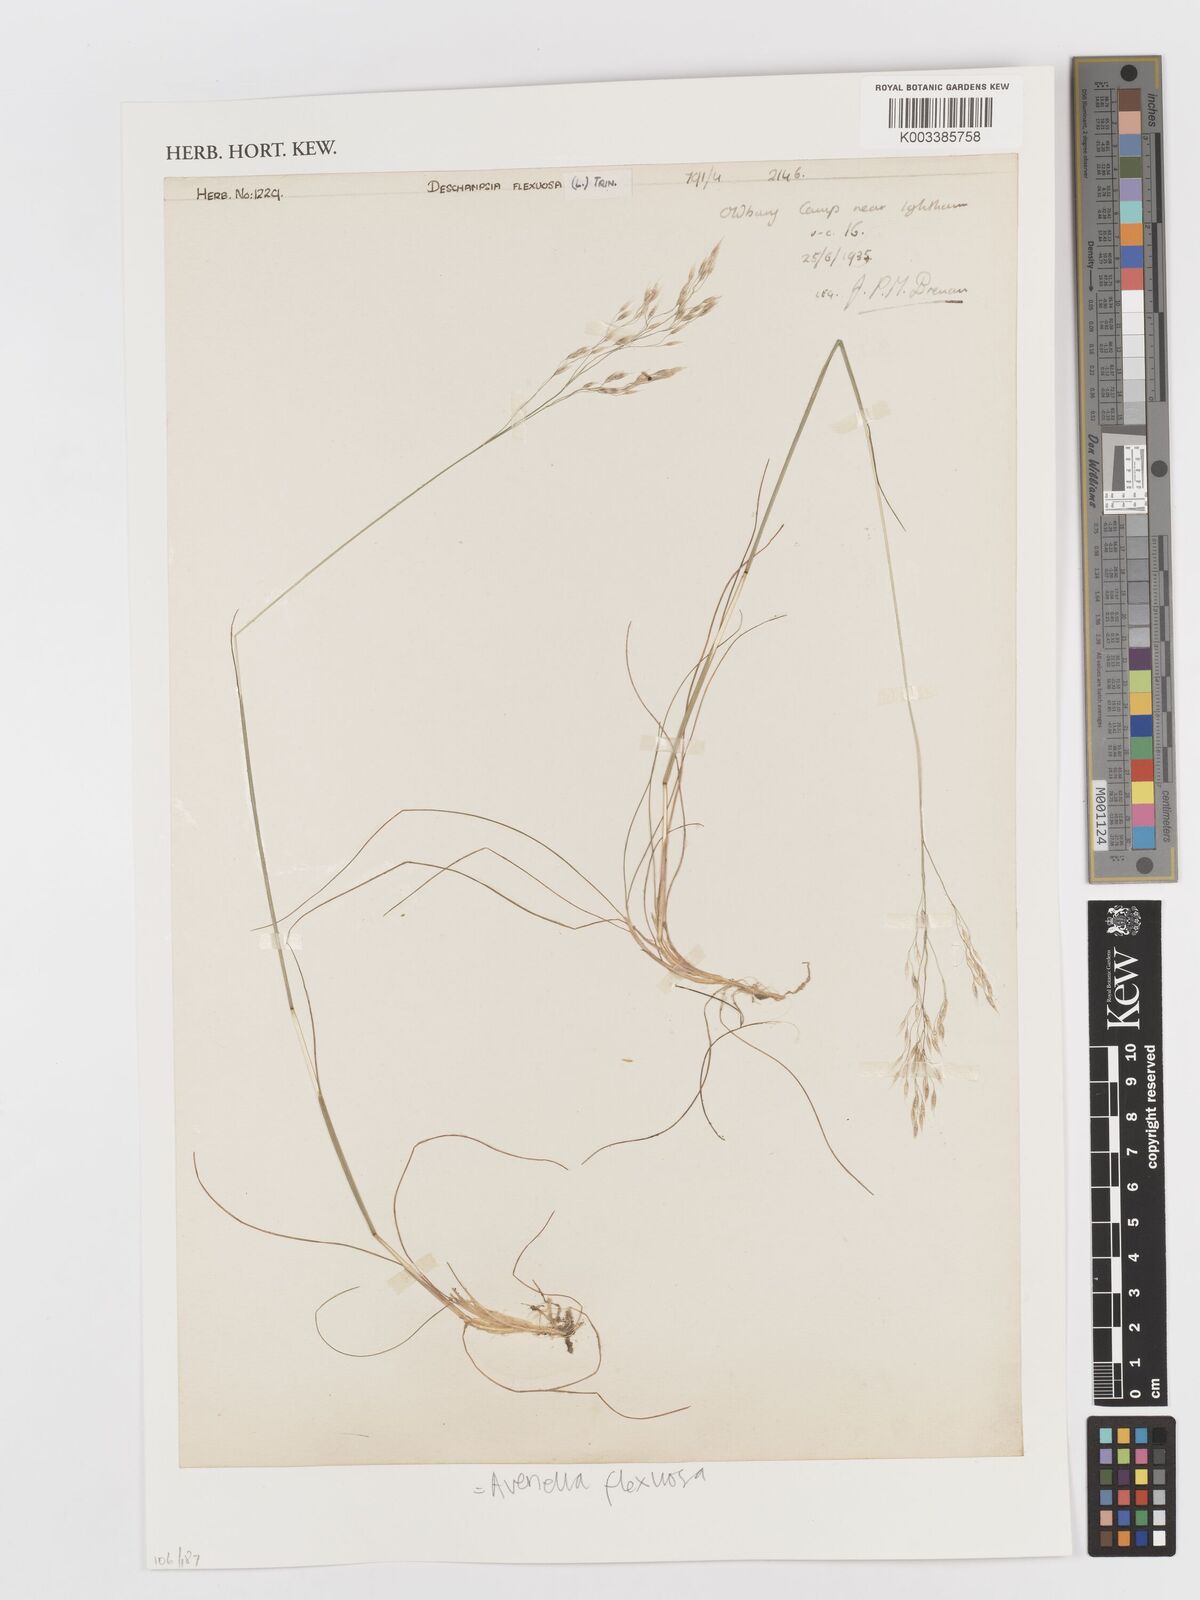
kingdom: Plantae
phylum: Tracheophyta
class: Liliopsida
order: Poales
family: Poaceae
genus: Avenella
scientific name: Avenella flexuosa
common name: Wavy hairgrass
